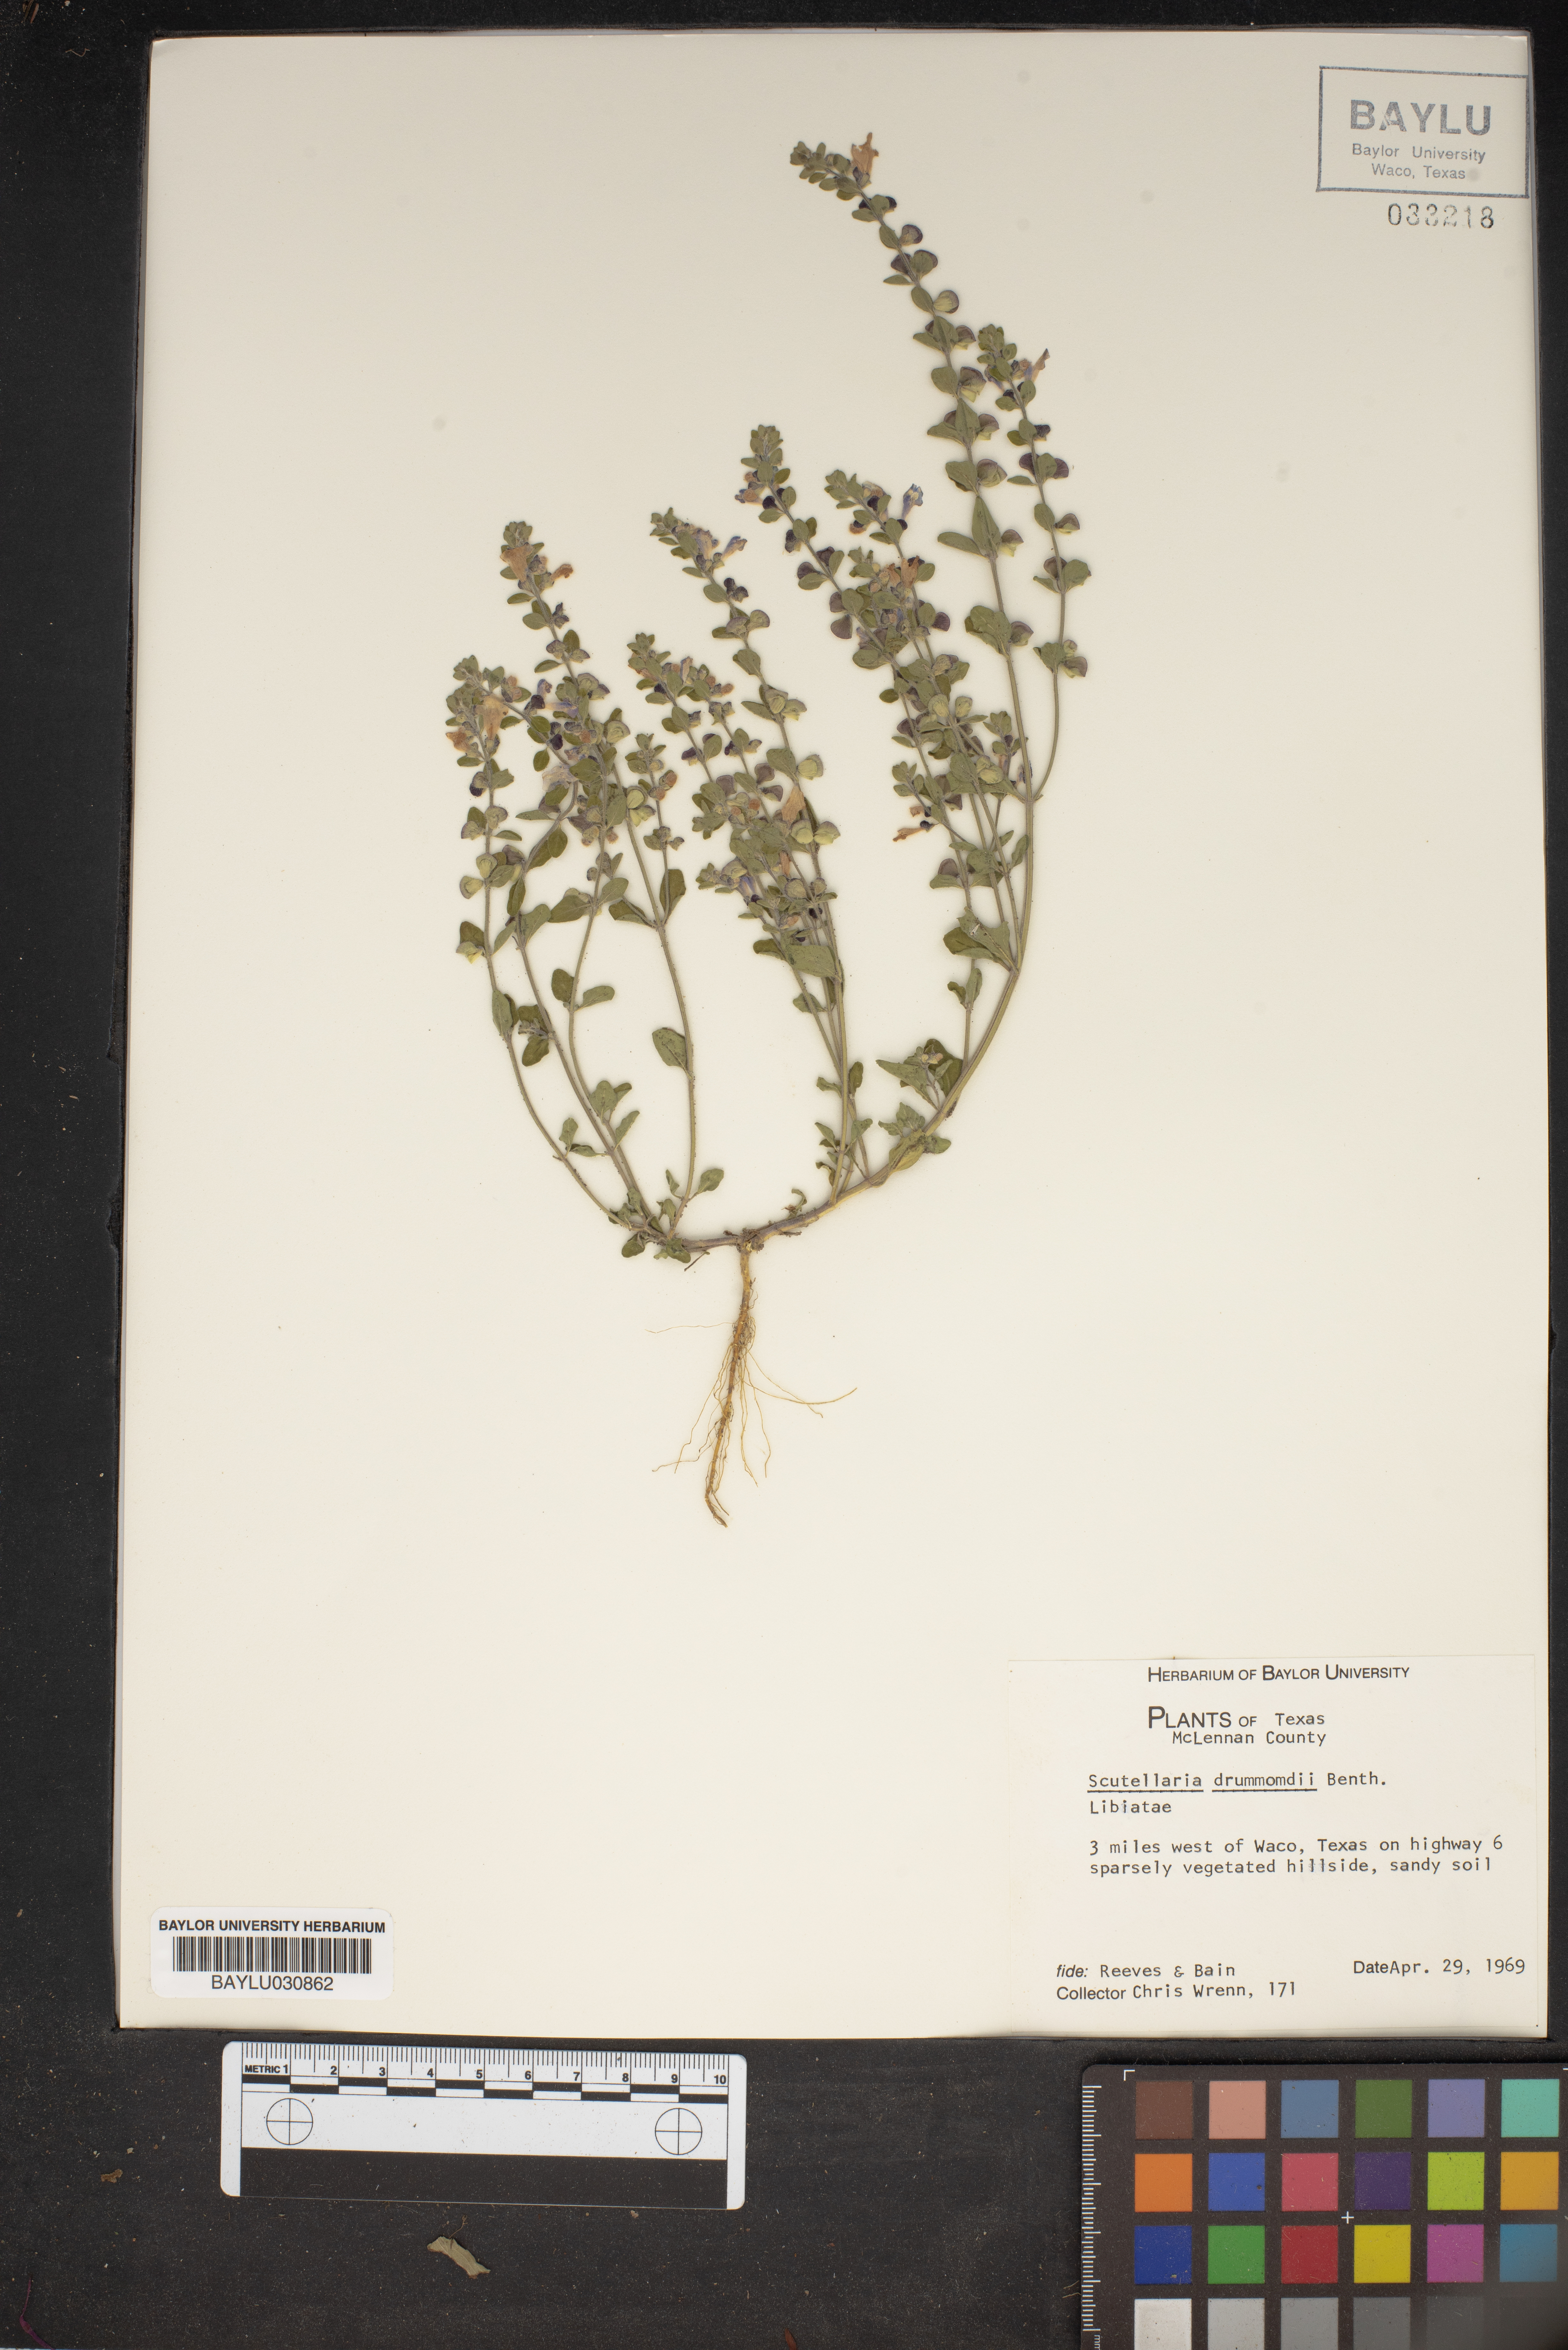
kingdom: Plantae
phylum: Tracheophyta
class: Magnoliopsida
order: Lamiales
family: Lamiaceae
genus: Scutellaria
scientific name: Scutellaria drummondii
